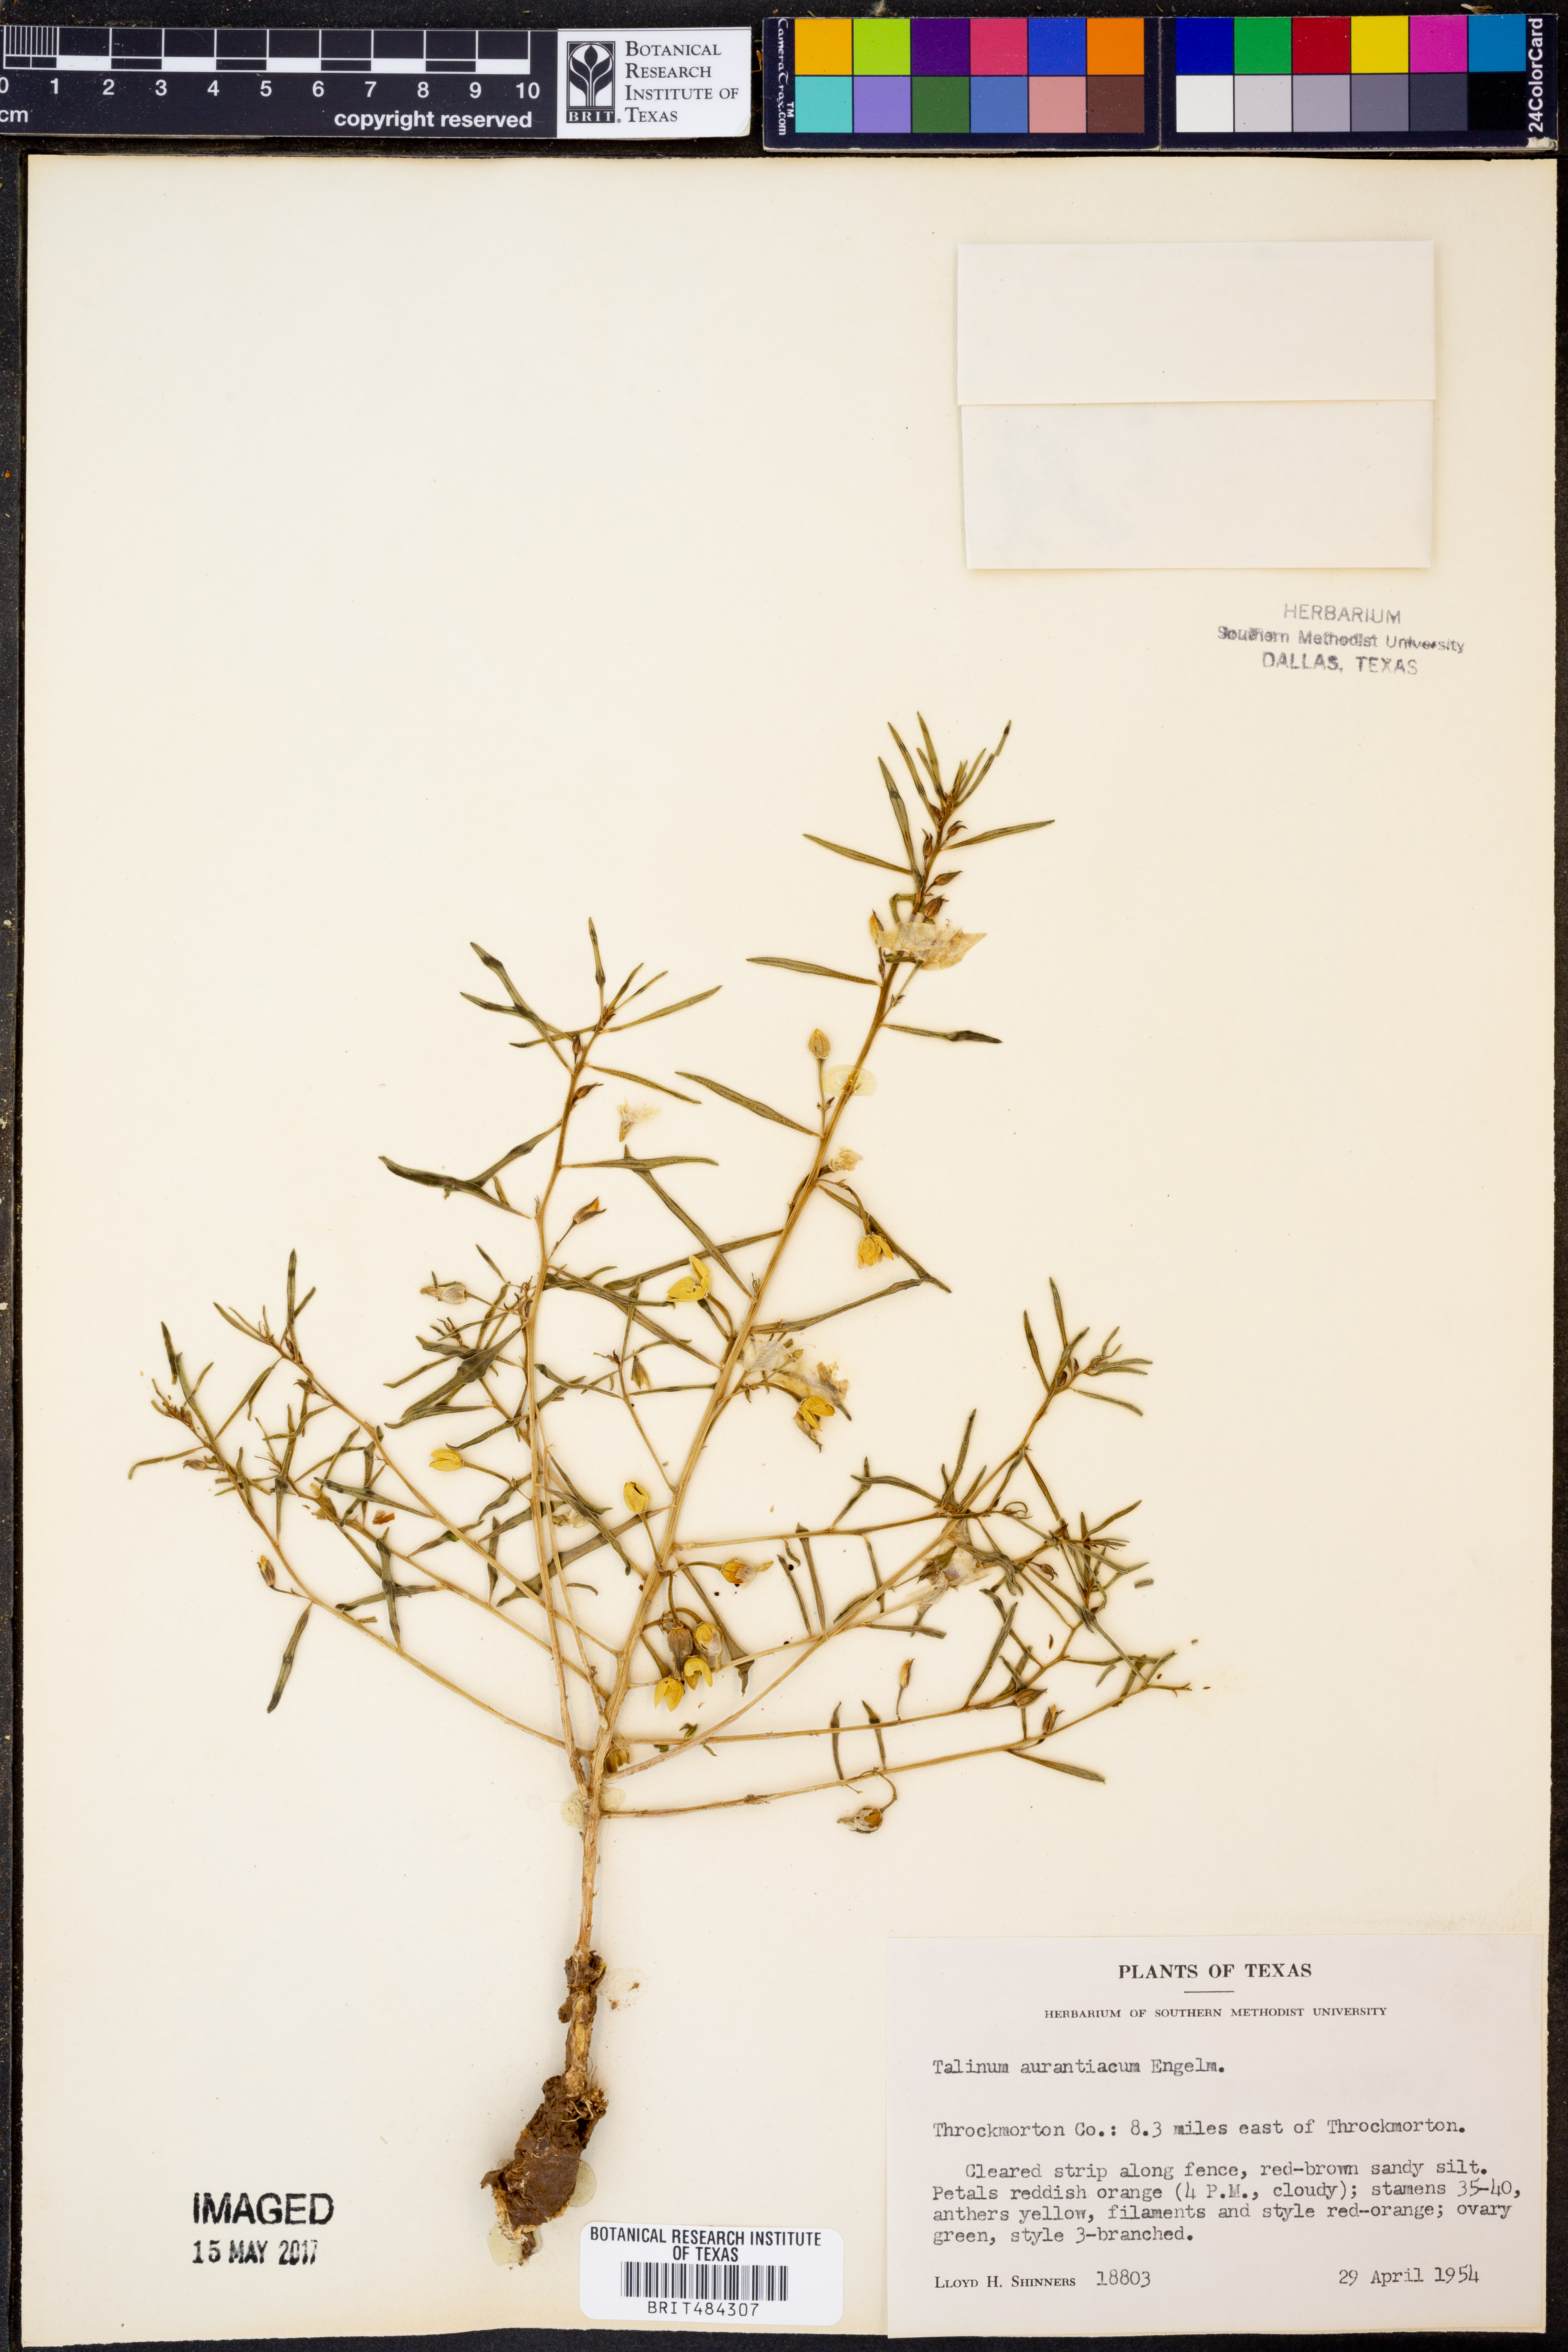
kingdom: Plantae
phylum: Tracheophyta
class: Magnoliopsida
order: Caryophyllales
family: Montiaceae
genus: Phemeranthus
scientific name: Phemeranthus aurantiacus
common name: Orange fameflower
